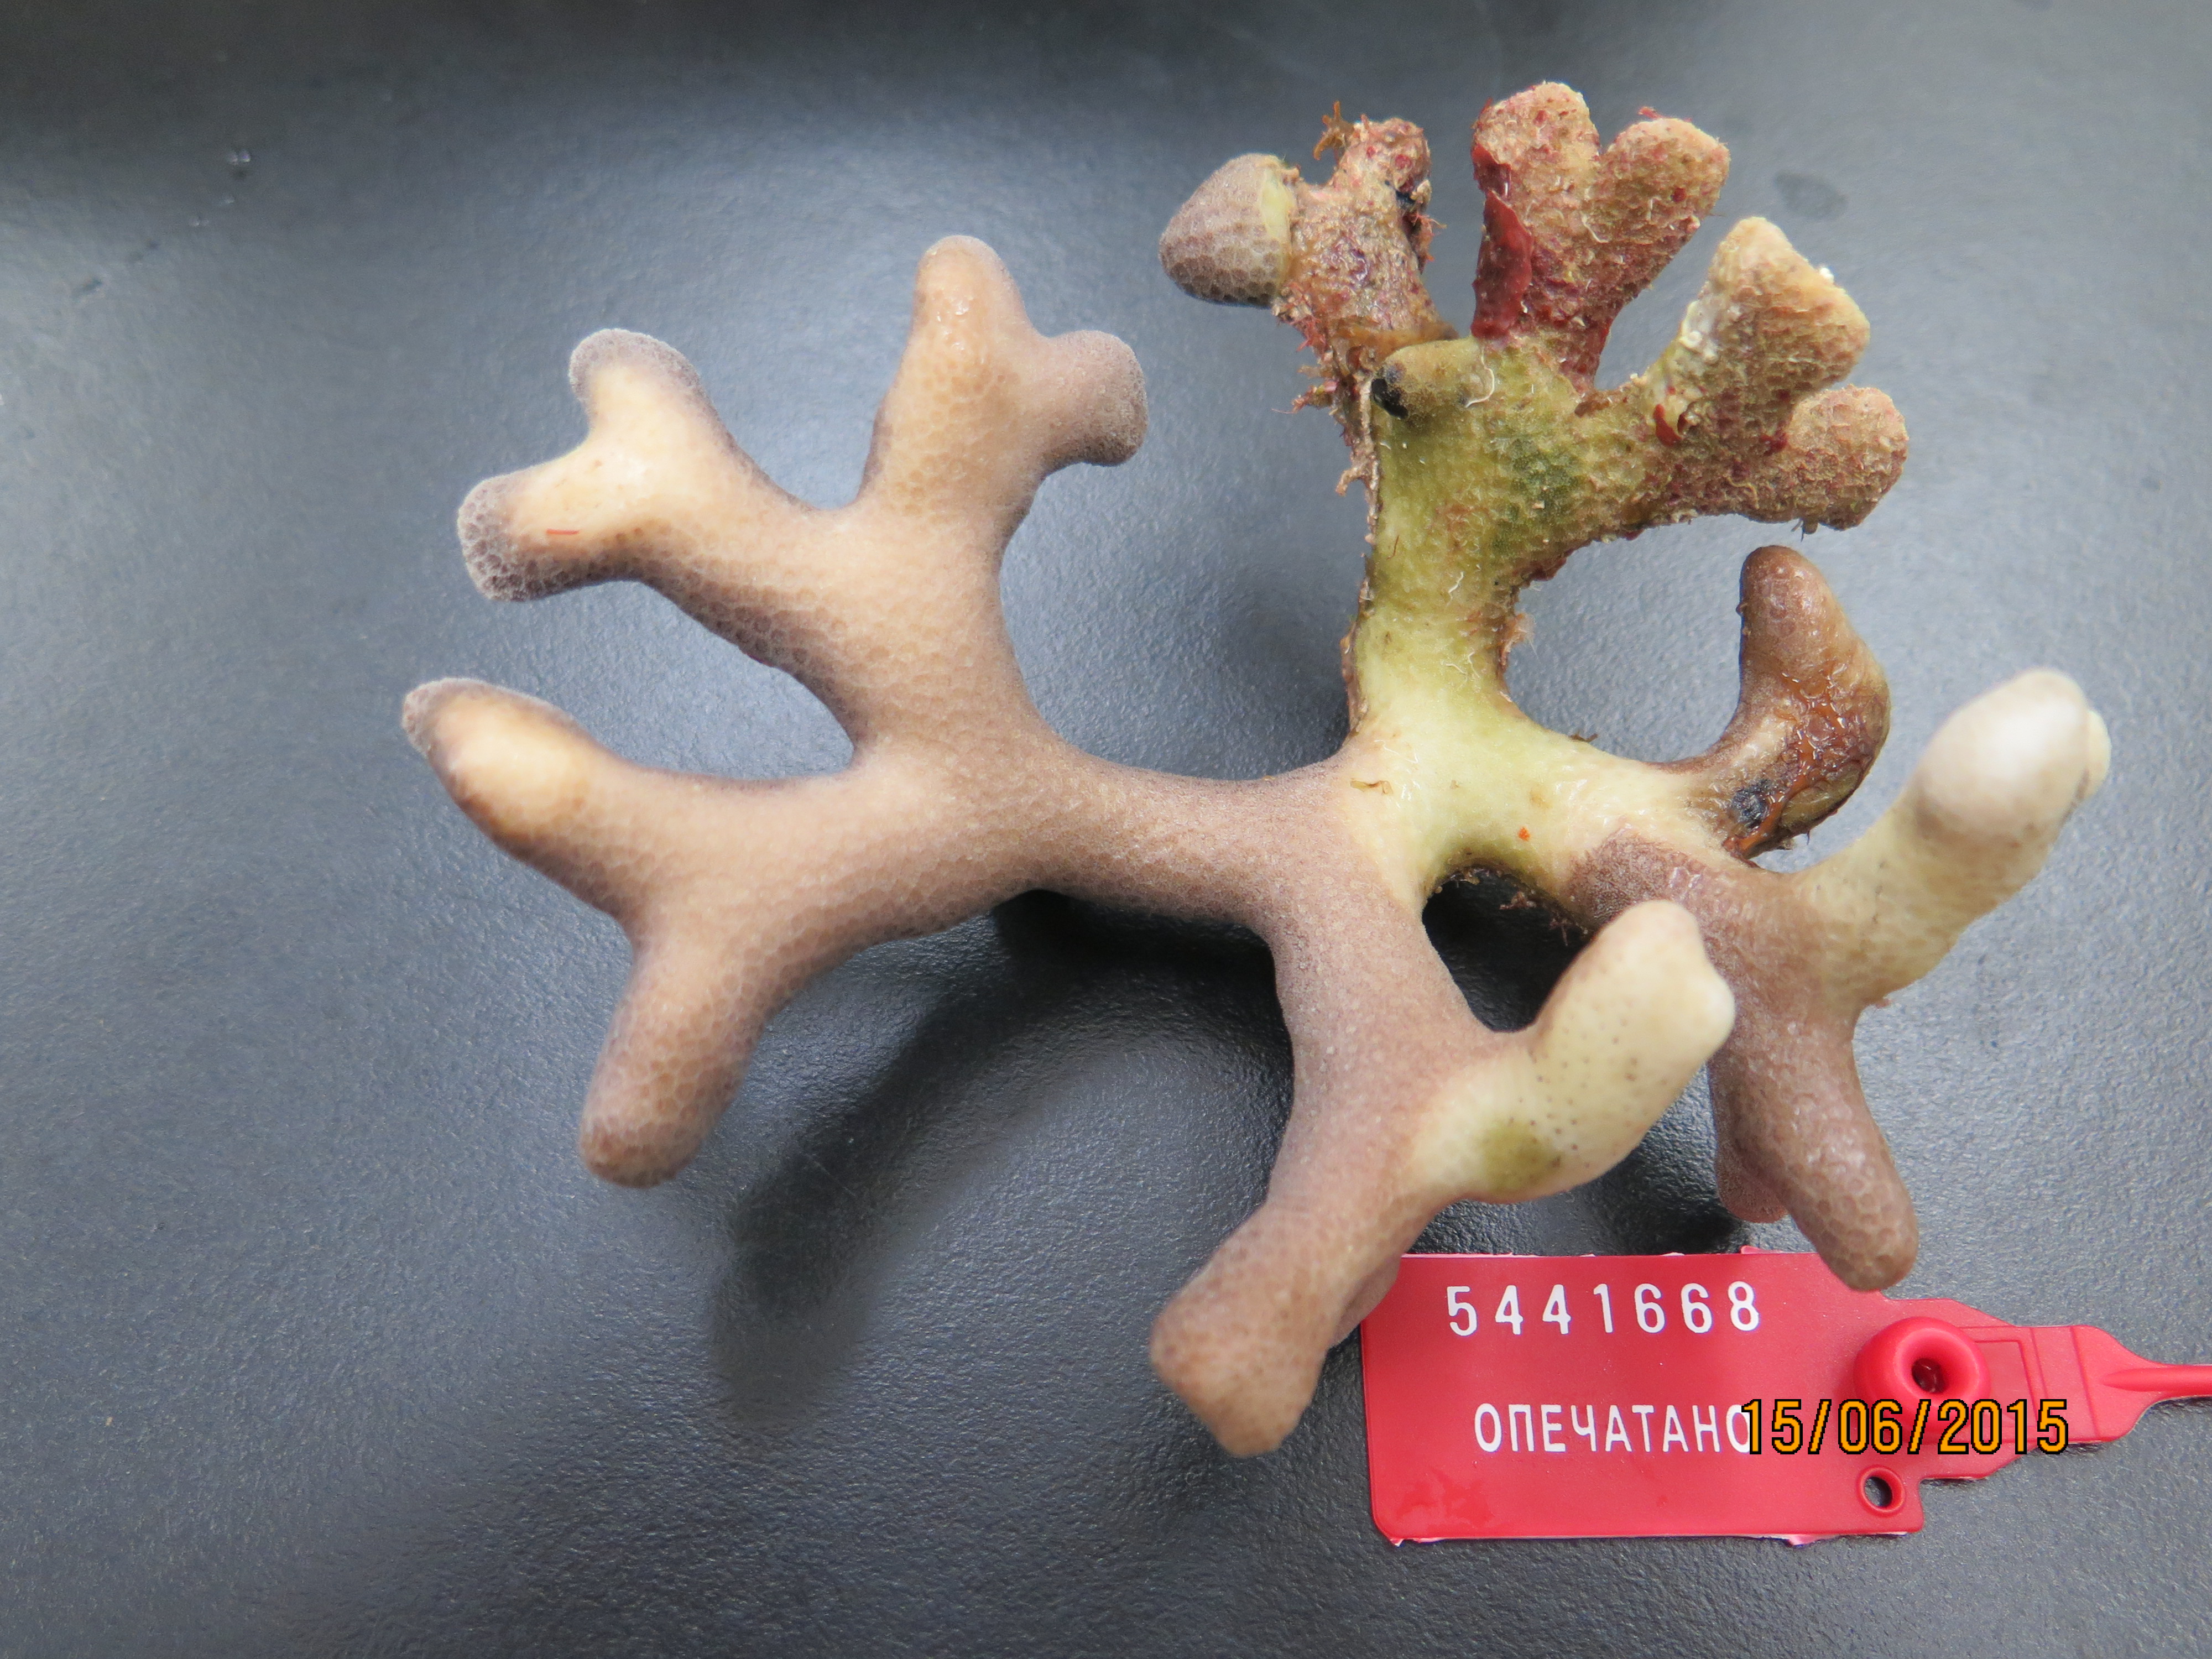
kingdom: Animalia
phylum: Cnidaria
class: Anthozoa
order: Scleractinia
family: Faviidae
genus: Isophyllia
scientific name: Isophyllia rigida
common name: Rough star coral
